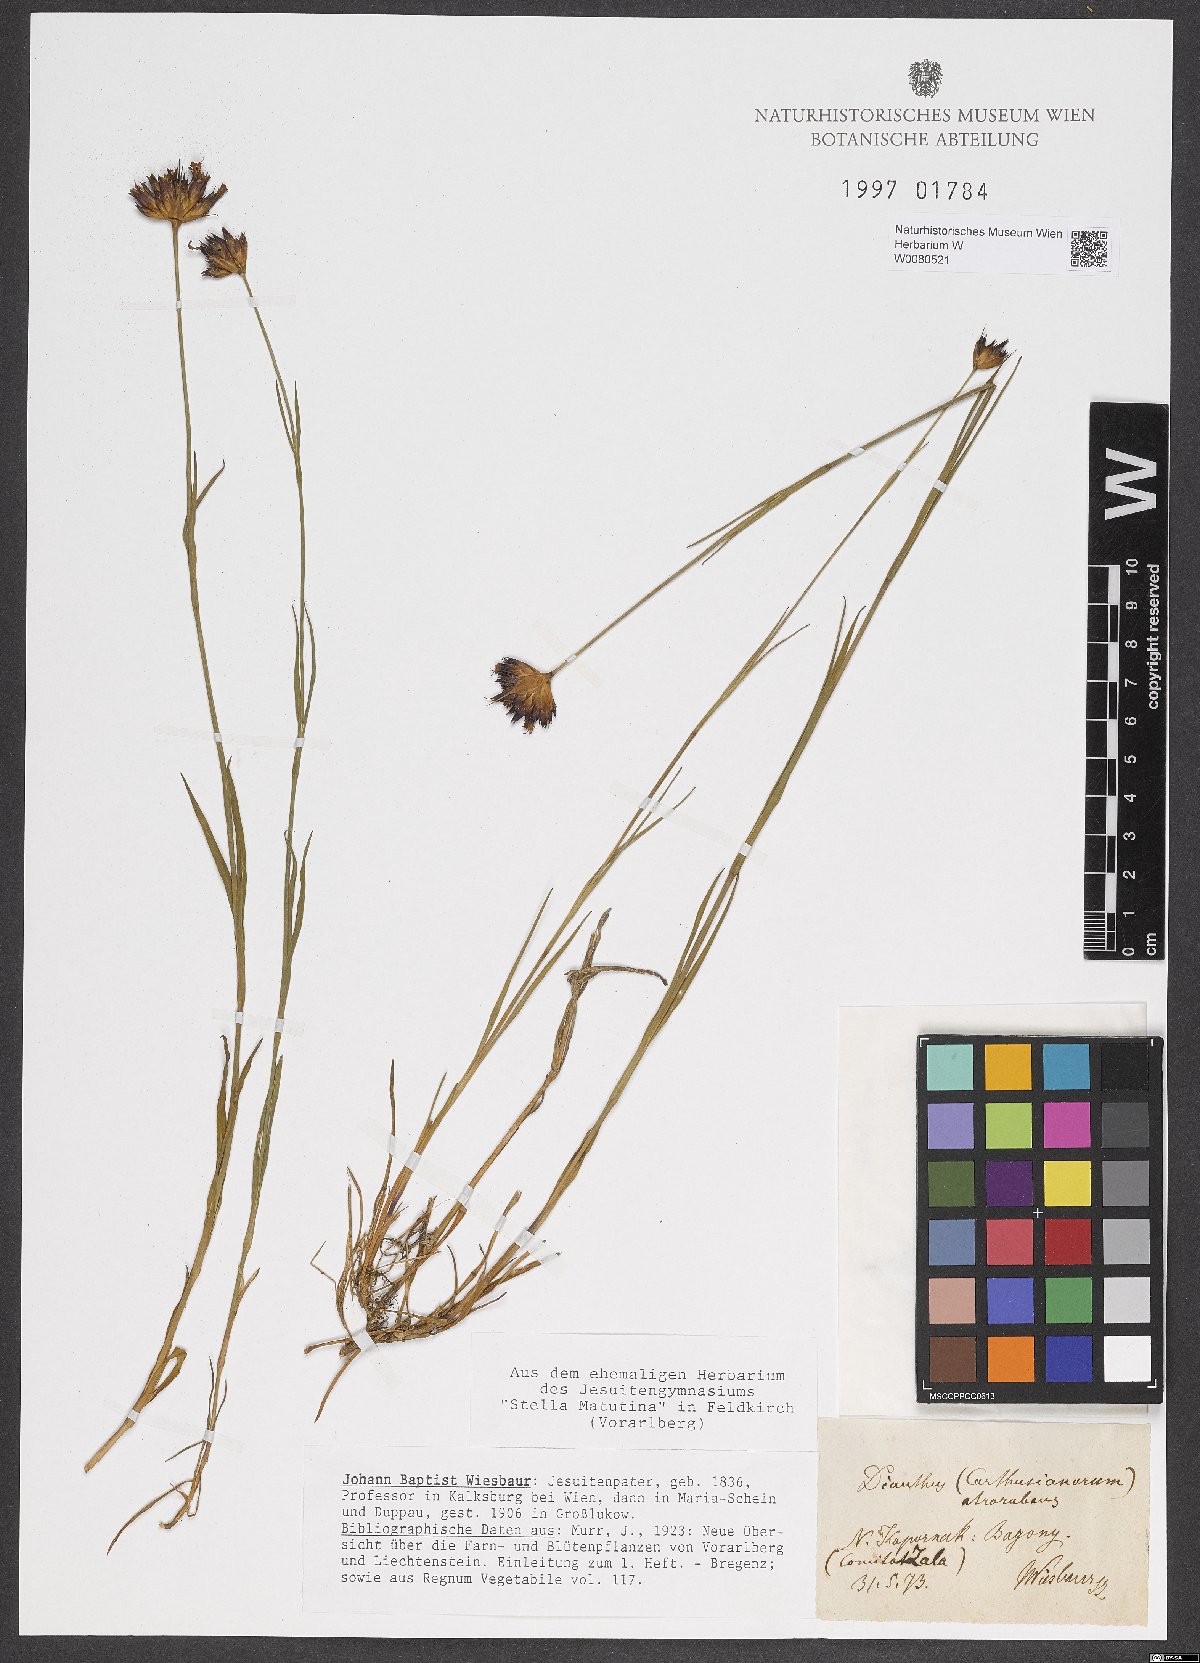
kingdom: Plantae
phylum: Tracheophyta
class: Magnoliopsida
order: Caryophyllales
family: Caryophyllaceae
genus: Dianthus
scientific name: Dianthus carthusianorum
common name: Carthusian pink
